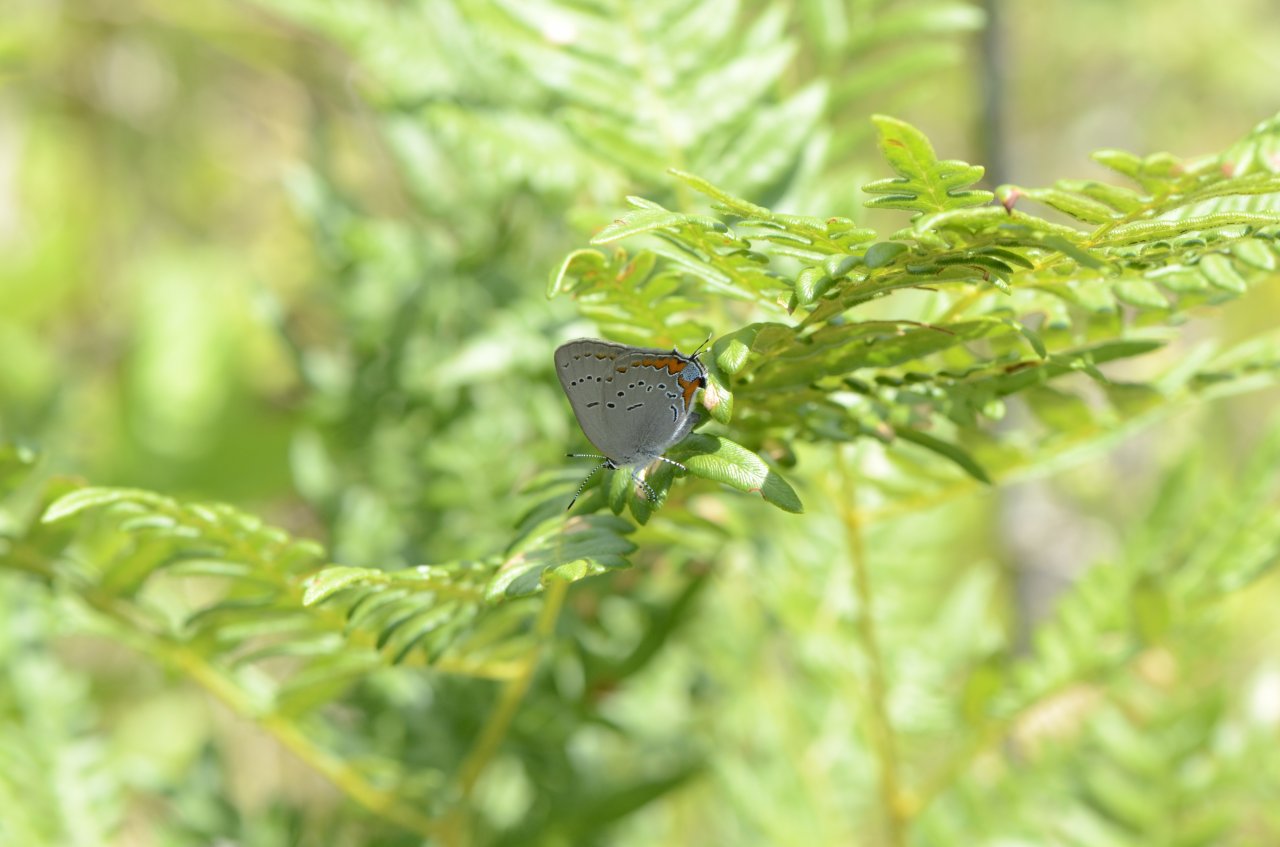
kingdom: Animalia
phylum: Arthropoda
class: Insecta
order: Lepidoptera
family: Lycaenidae
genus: Strymon
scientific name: Strymon acadica
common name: Acadian Hairstreak
